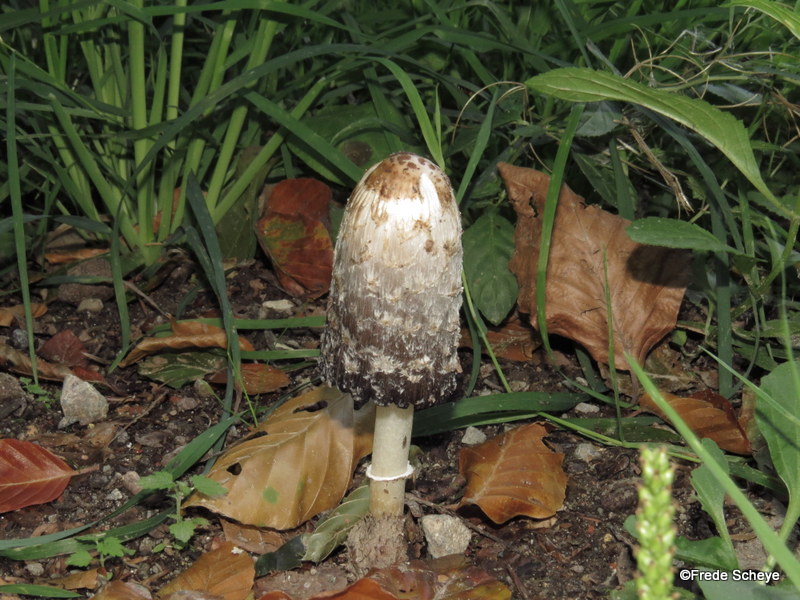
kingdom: Fungi
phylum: Basidiomycota
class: Agaricomycetes
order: Agaricales
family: Agaricaceae
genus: Coprinus
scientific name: Coprinus comatus
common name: stor parykhat
